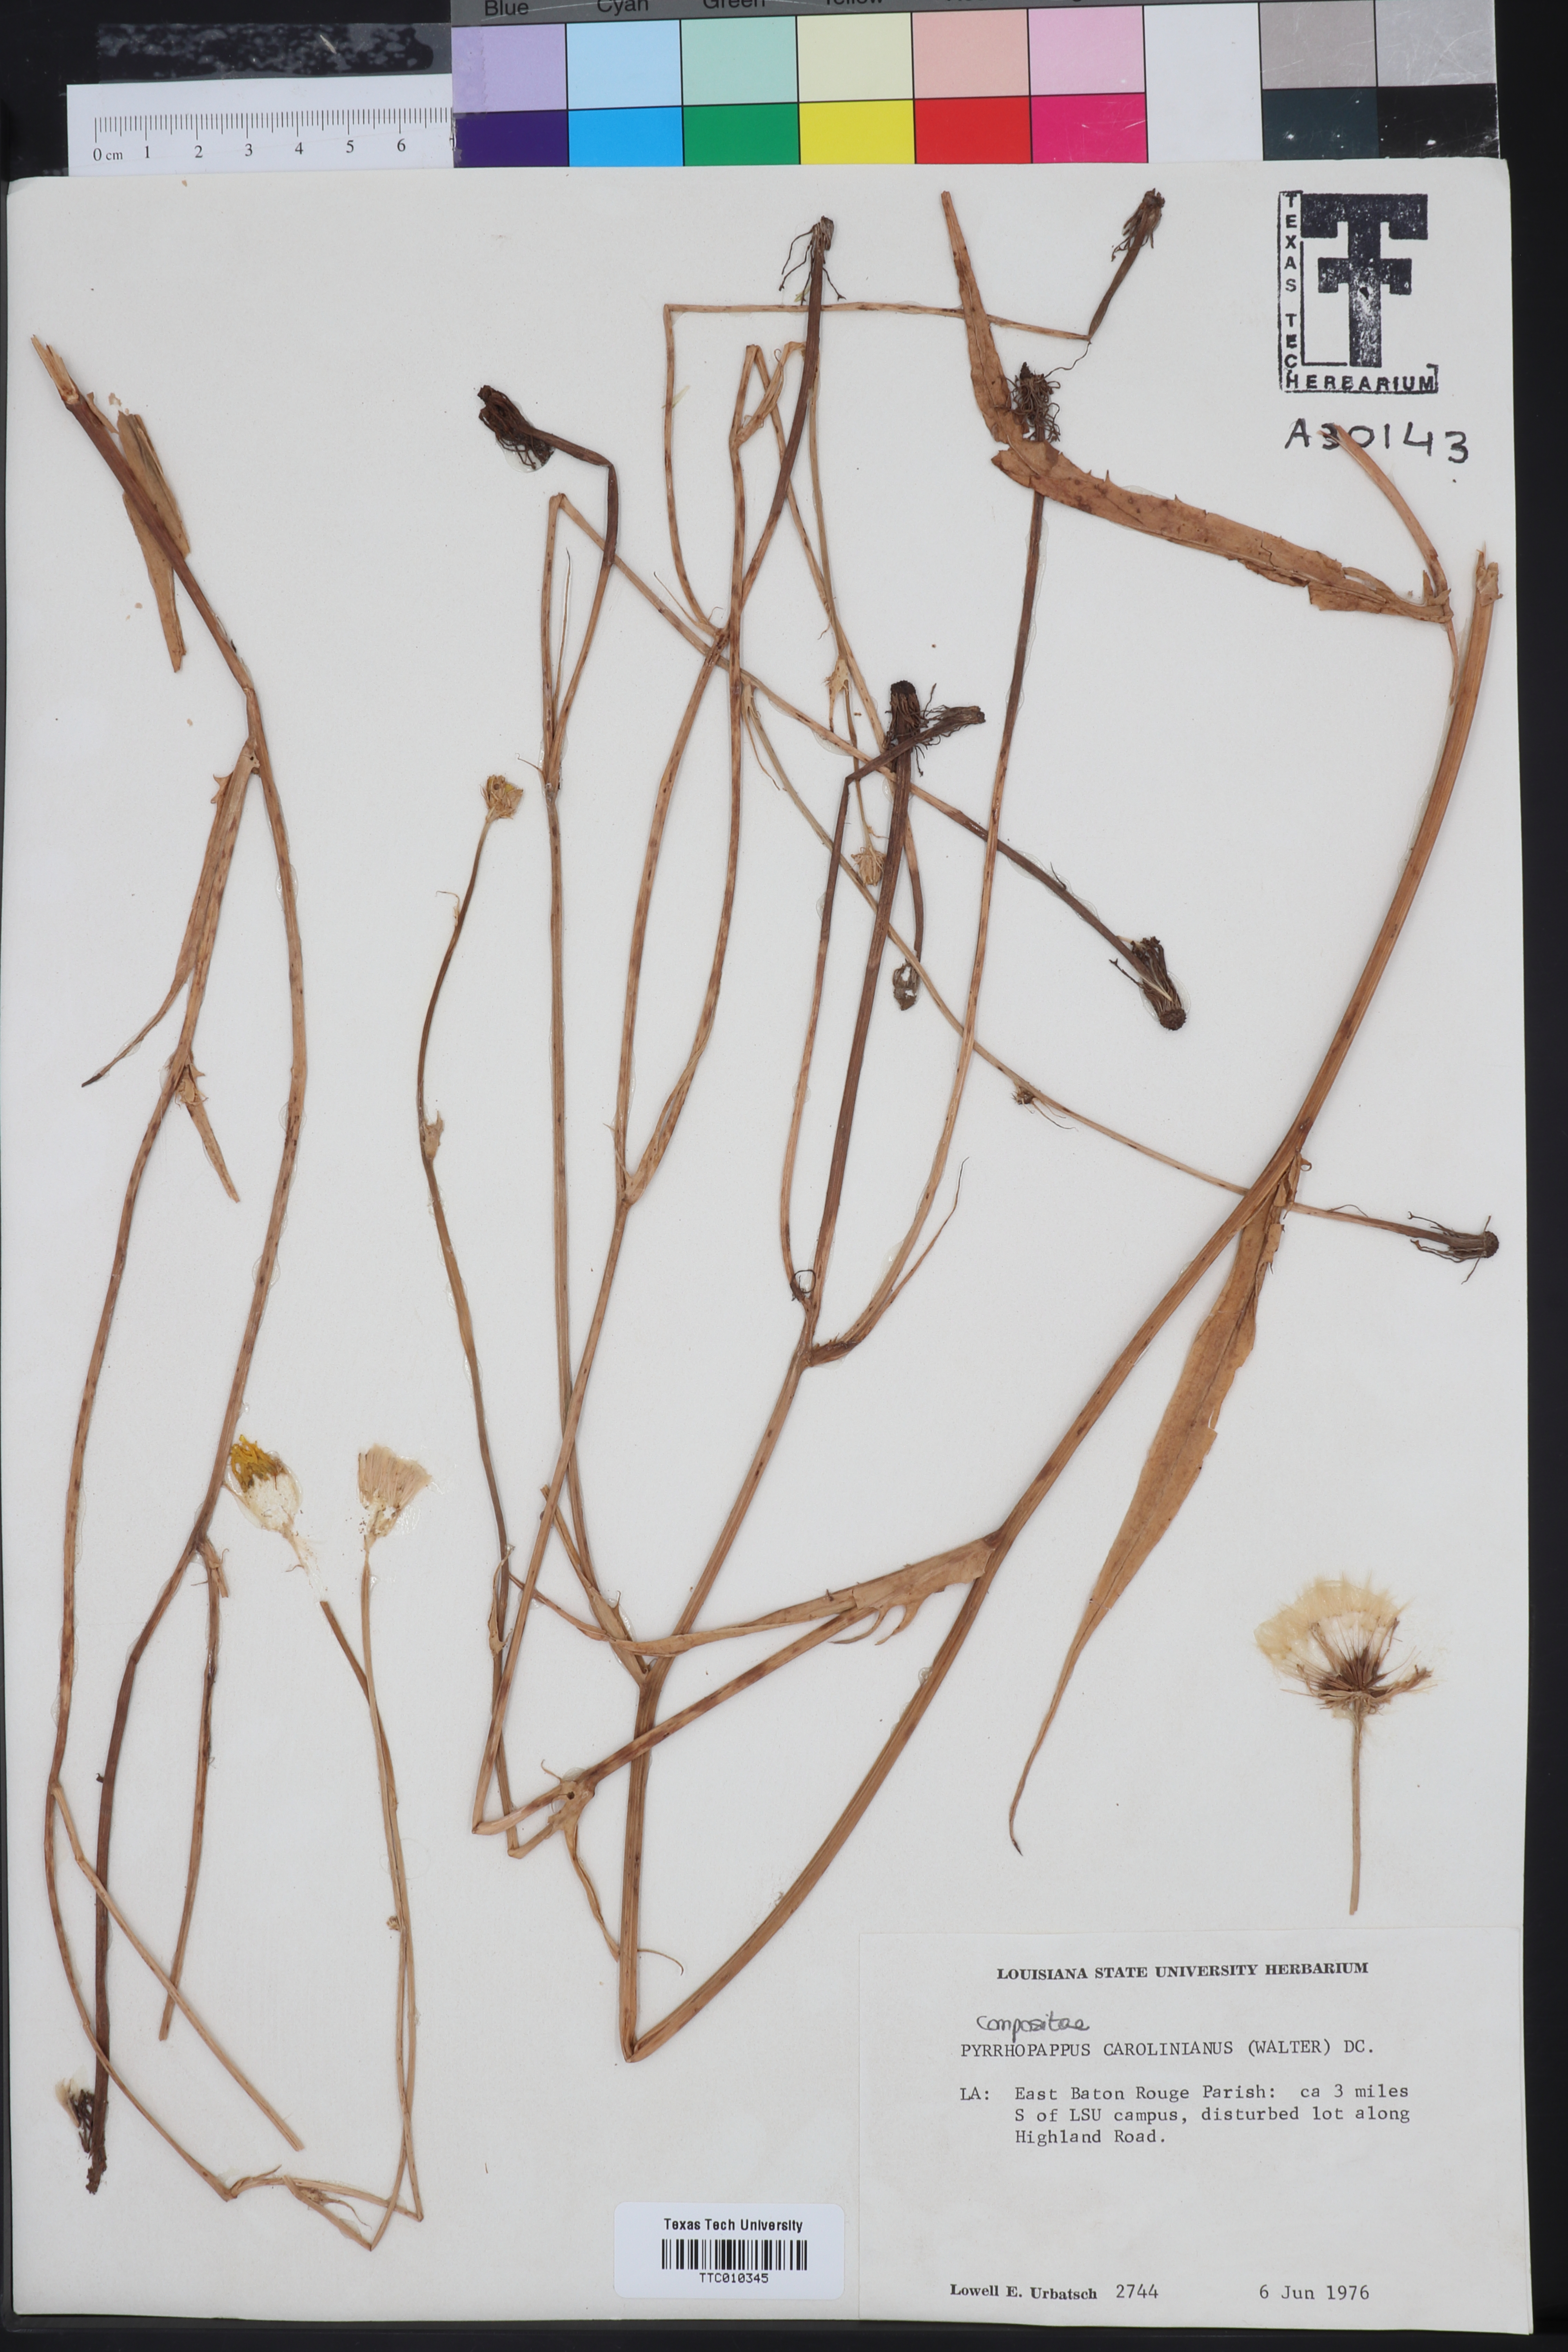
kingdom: Plantae
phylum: Tracheophyta
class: Magnoliopsida
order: Asterales
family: Asteraceae
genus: Pyrrhopappus
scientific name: Pyrrhopappus carolinianus
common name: Carolina desert-chicory
